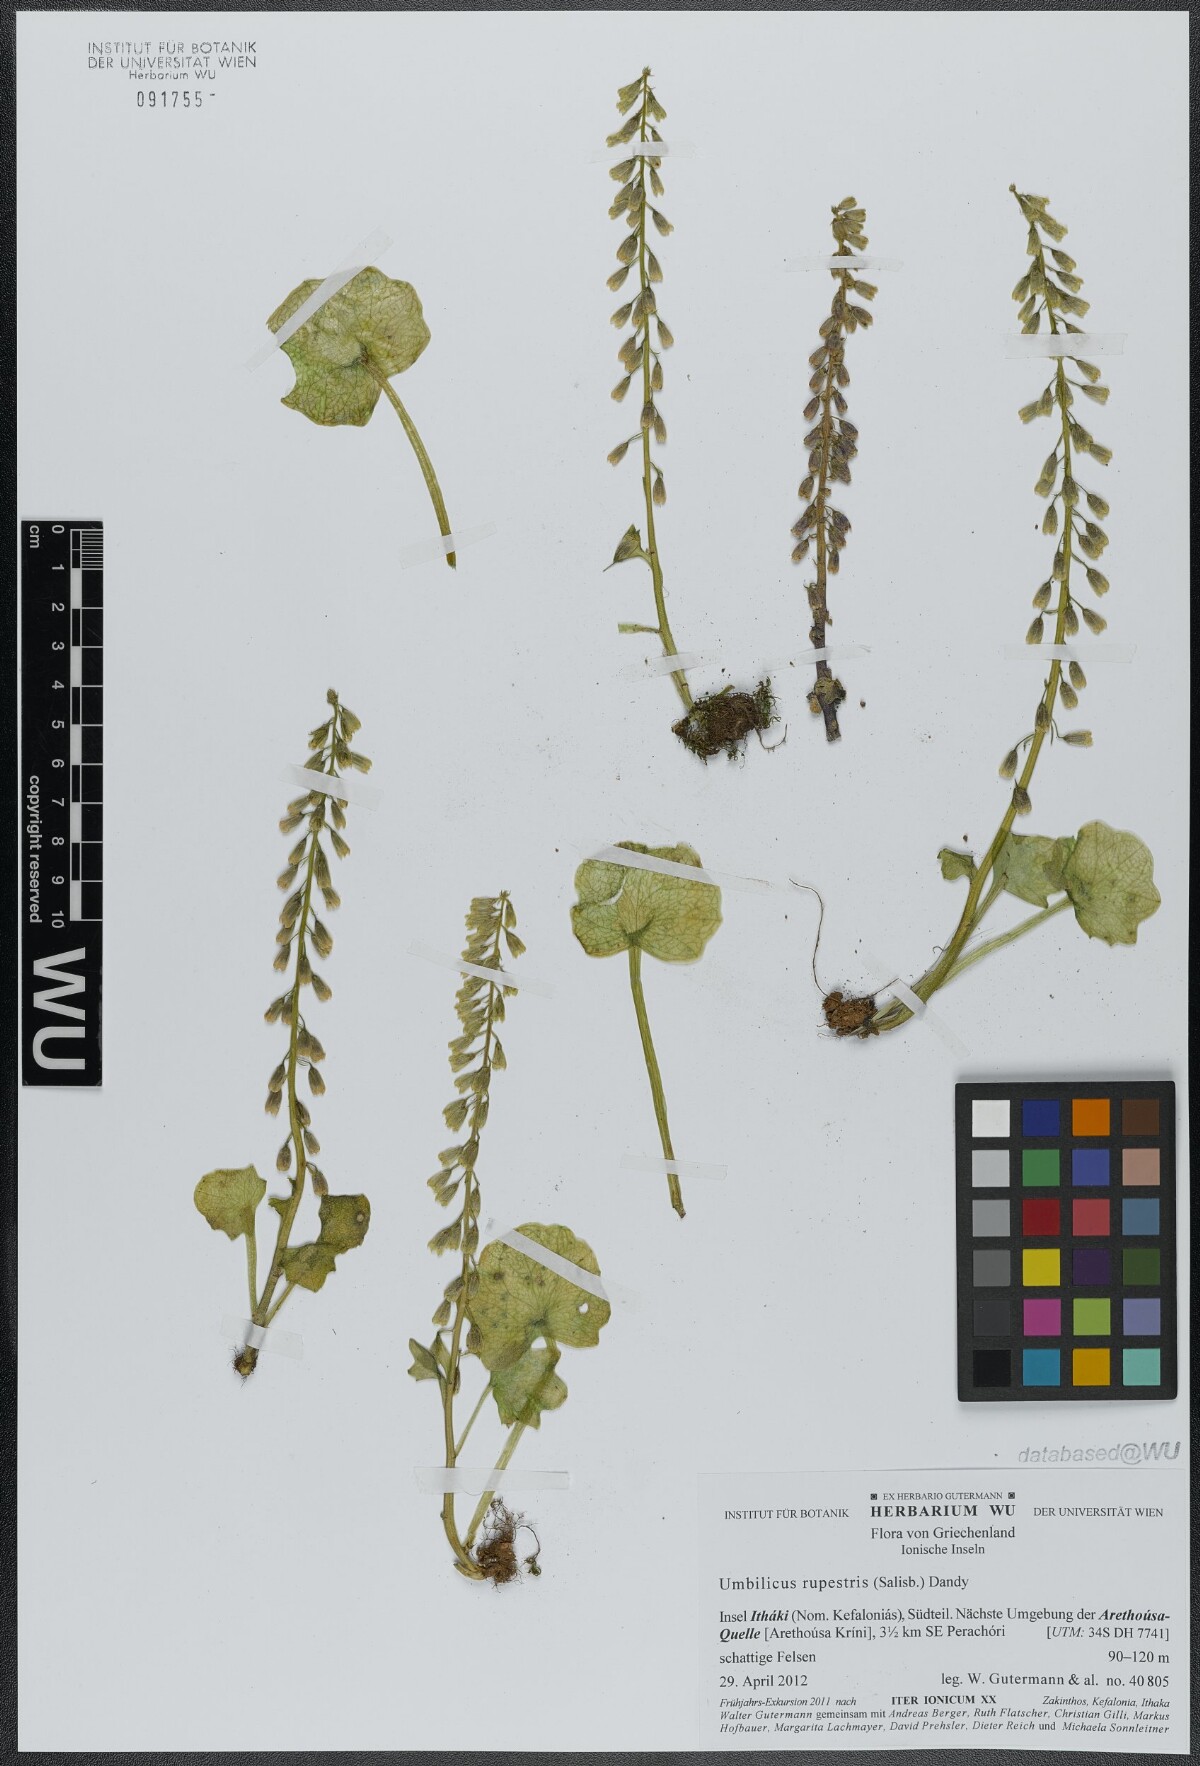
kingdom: Plantae
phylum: Tracheophyta
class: Magnoliopsida
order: Saxifragales
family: Crassulaceae
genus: Umbilicus
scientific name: Umbilicus rupestris
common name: Navelwort
